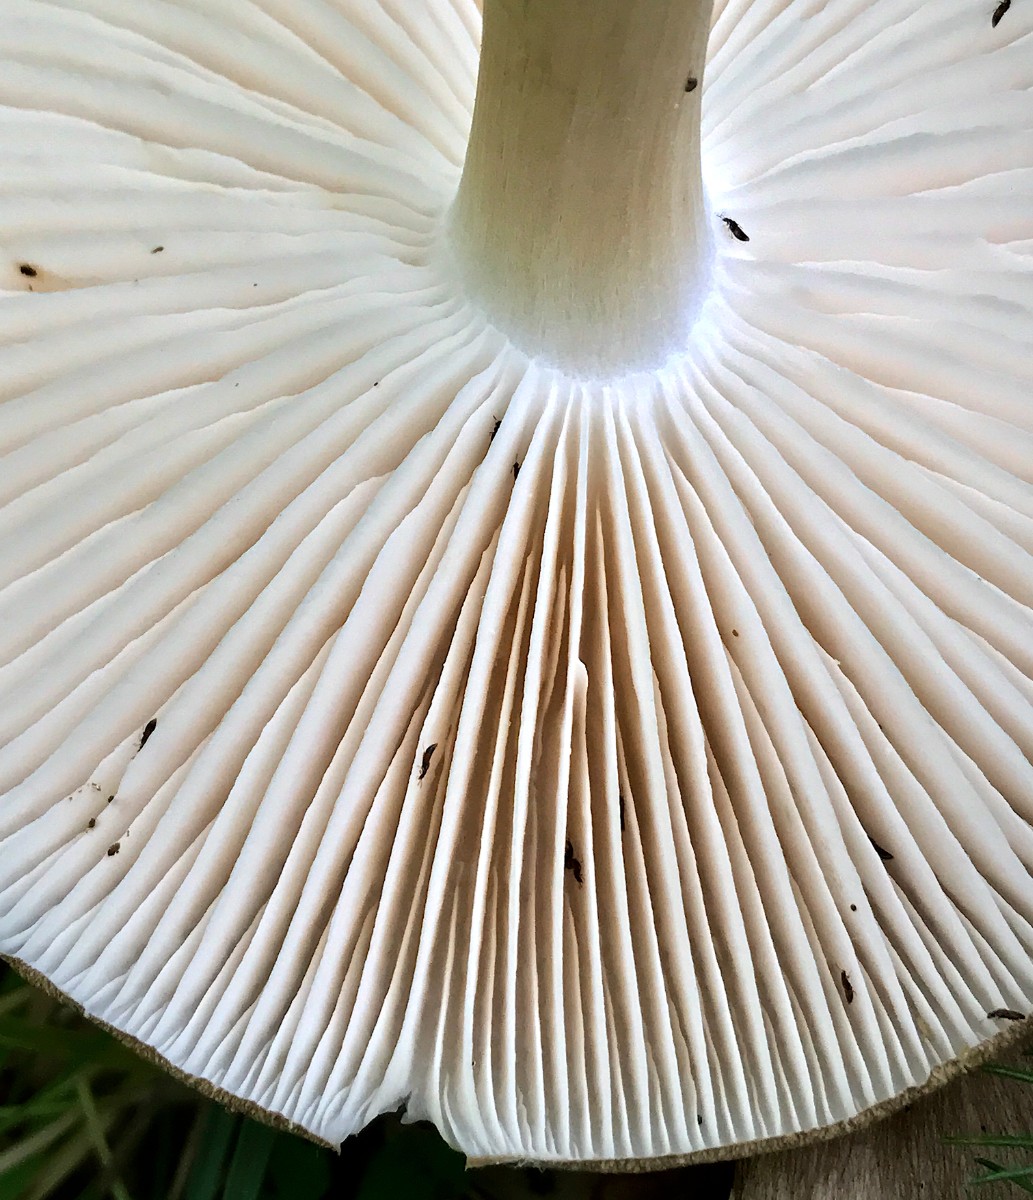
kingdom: Fungi
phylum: Basidiomycota
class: Agaricomycetes
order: Agaricales
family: Pluteaceae
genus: Pluteus
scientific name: Pluteus cervinus
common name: sodfarvet skærmhat
